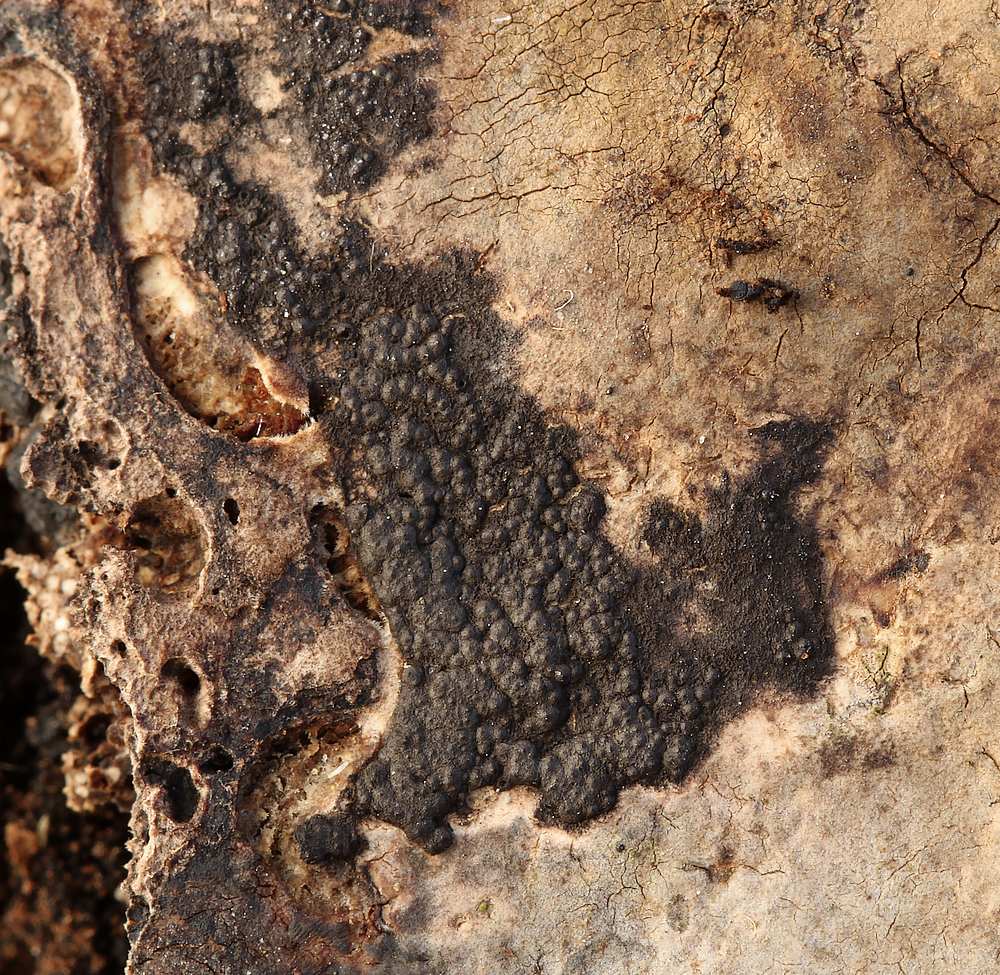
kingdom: Fungi
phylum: Ascomycota
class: Sordariomycetes
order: Xylariales
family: Xylariaceae
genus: Nemania
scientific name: Nemania serpens
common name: hovpore-kuldyne
